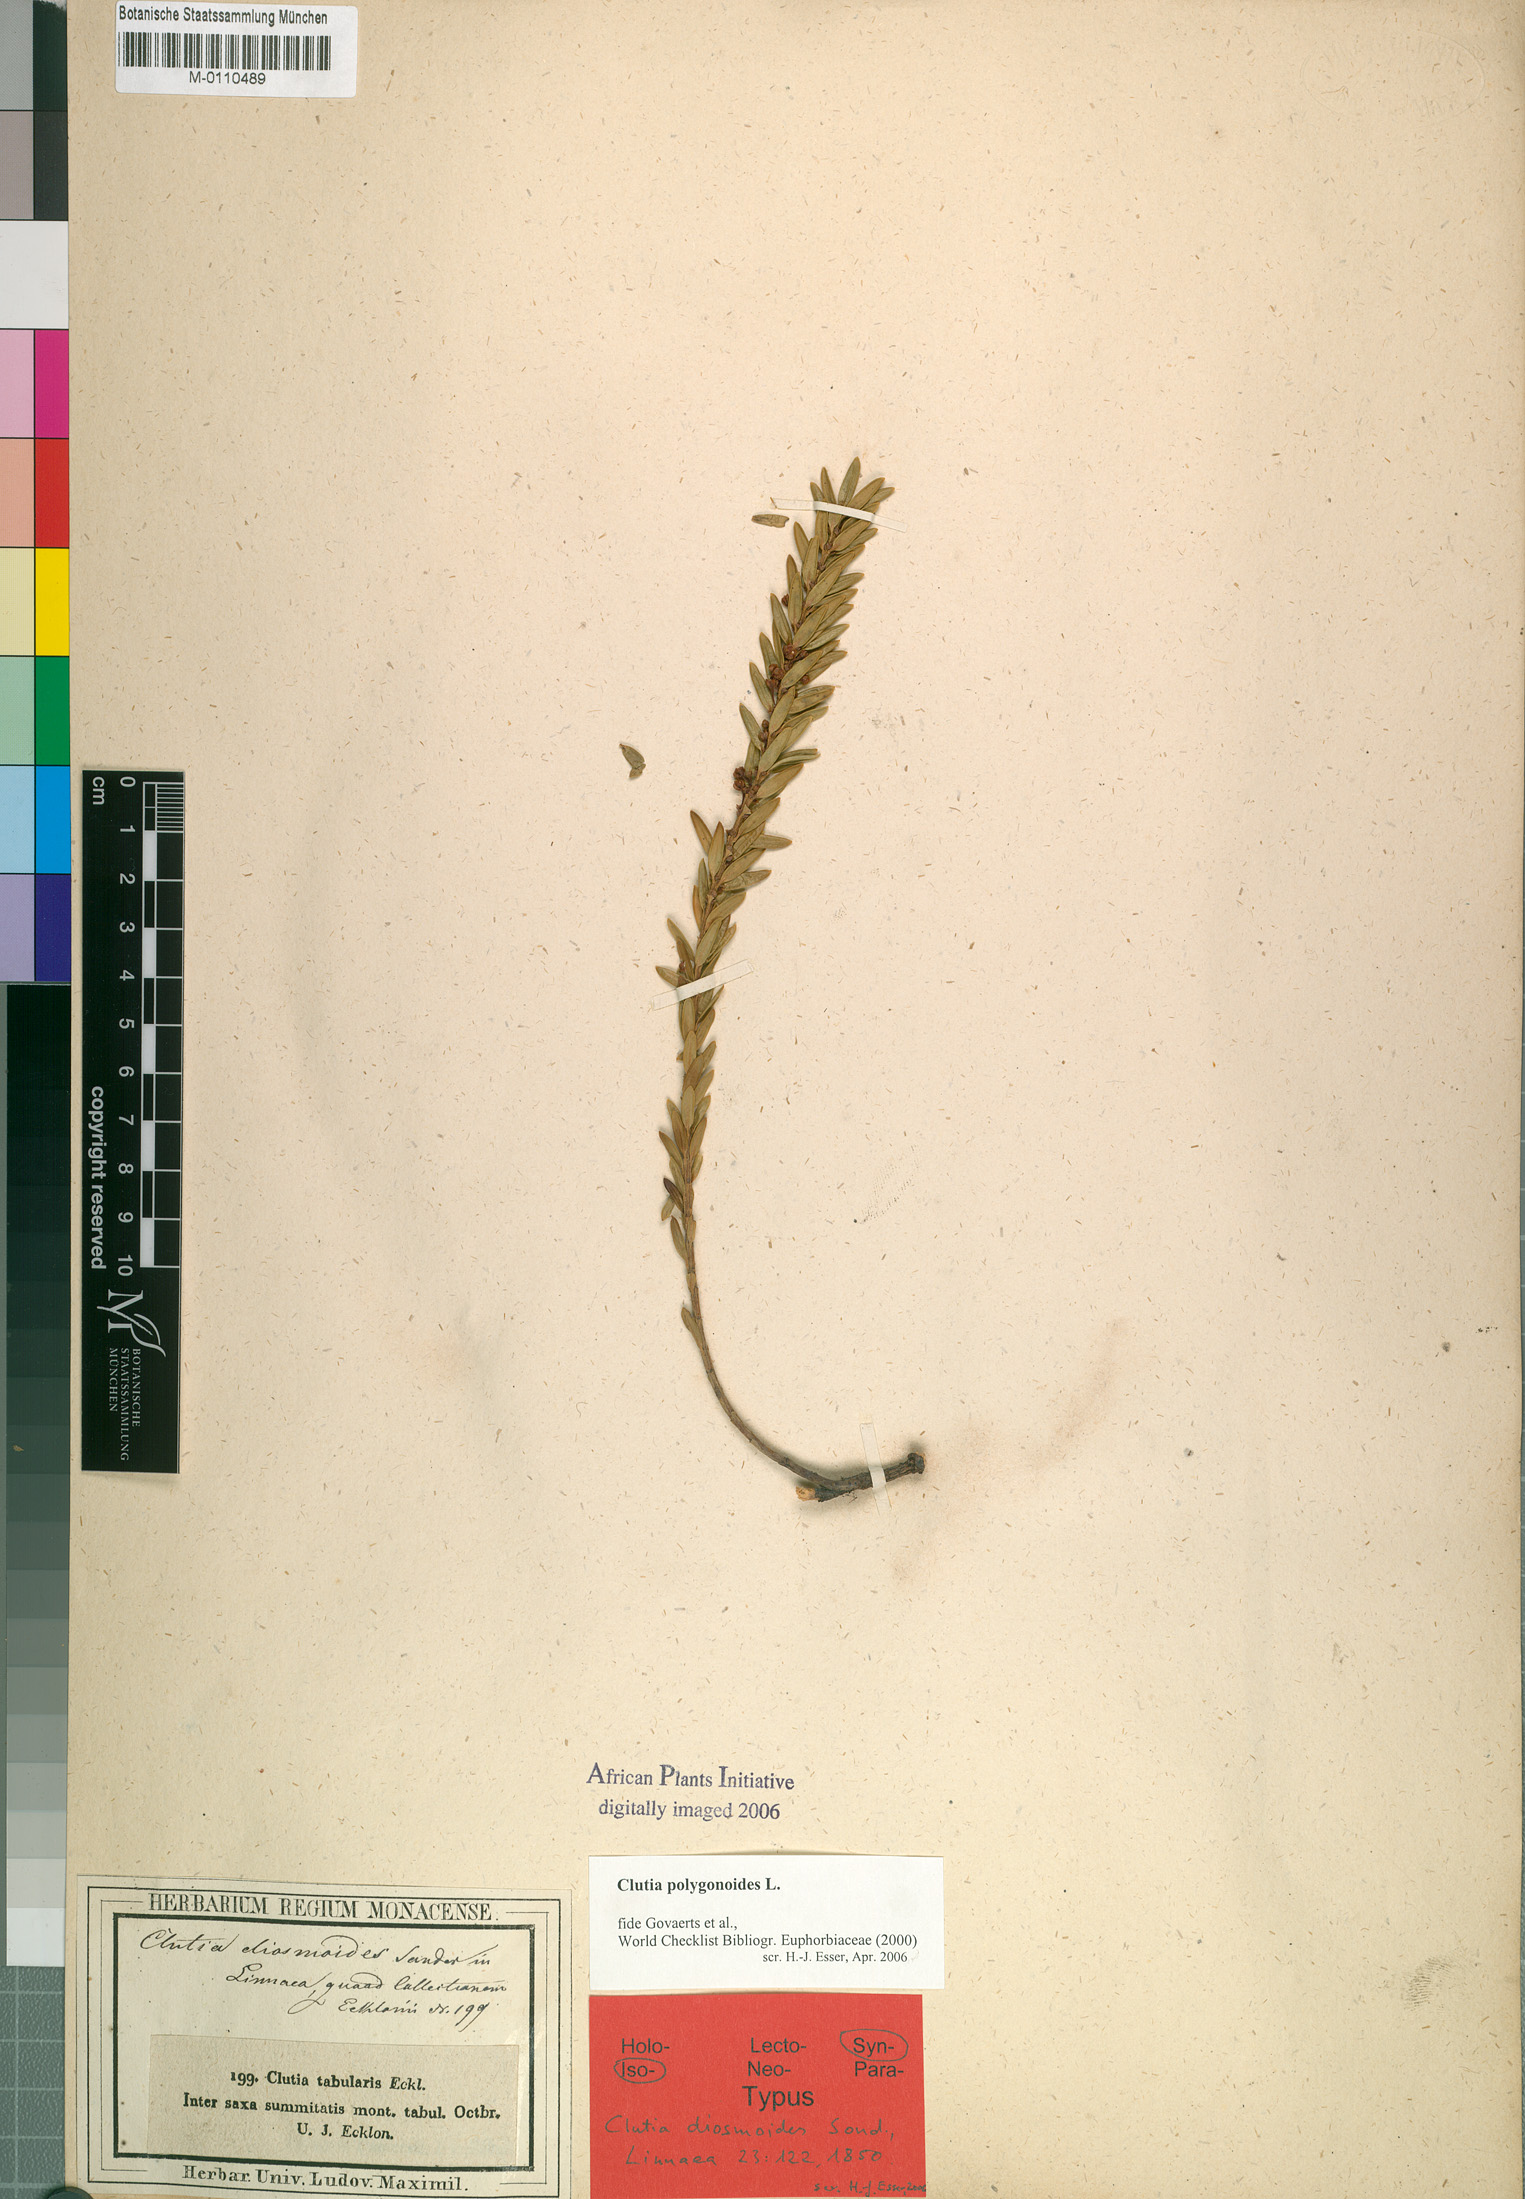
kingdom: Plantae
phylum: Tracheophyta
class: Magnoliopsida
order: Malpighiales
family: Peraceae
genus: Clutia
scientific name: Clutia polygonoides
